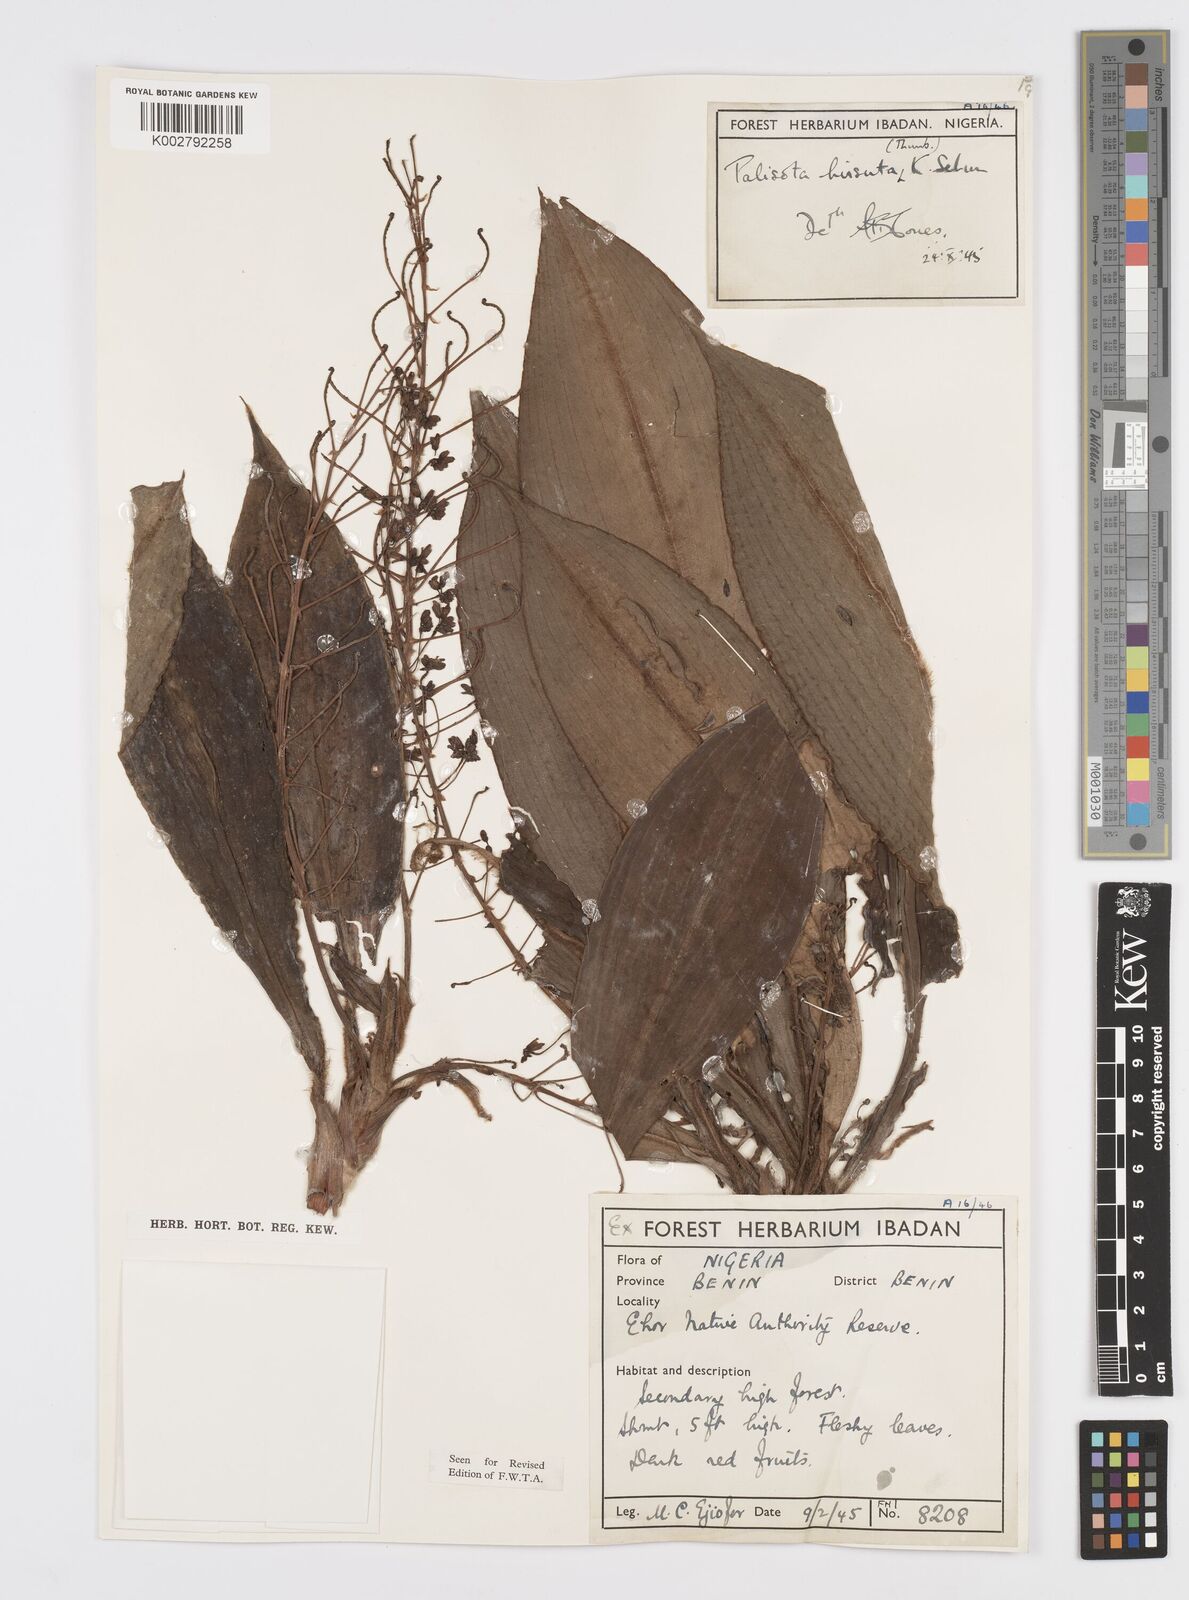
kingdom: Plantae
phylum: Tracheophyta
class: Liliopsida
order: Commelinales
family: Commelinaceae
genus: Palisota
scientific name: Palisota hirsuta
